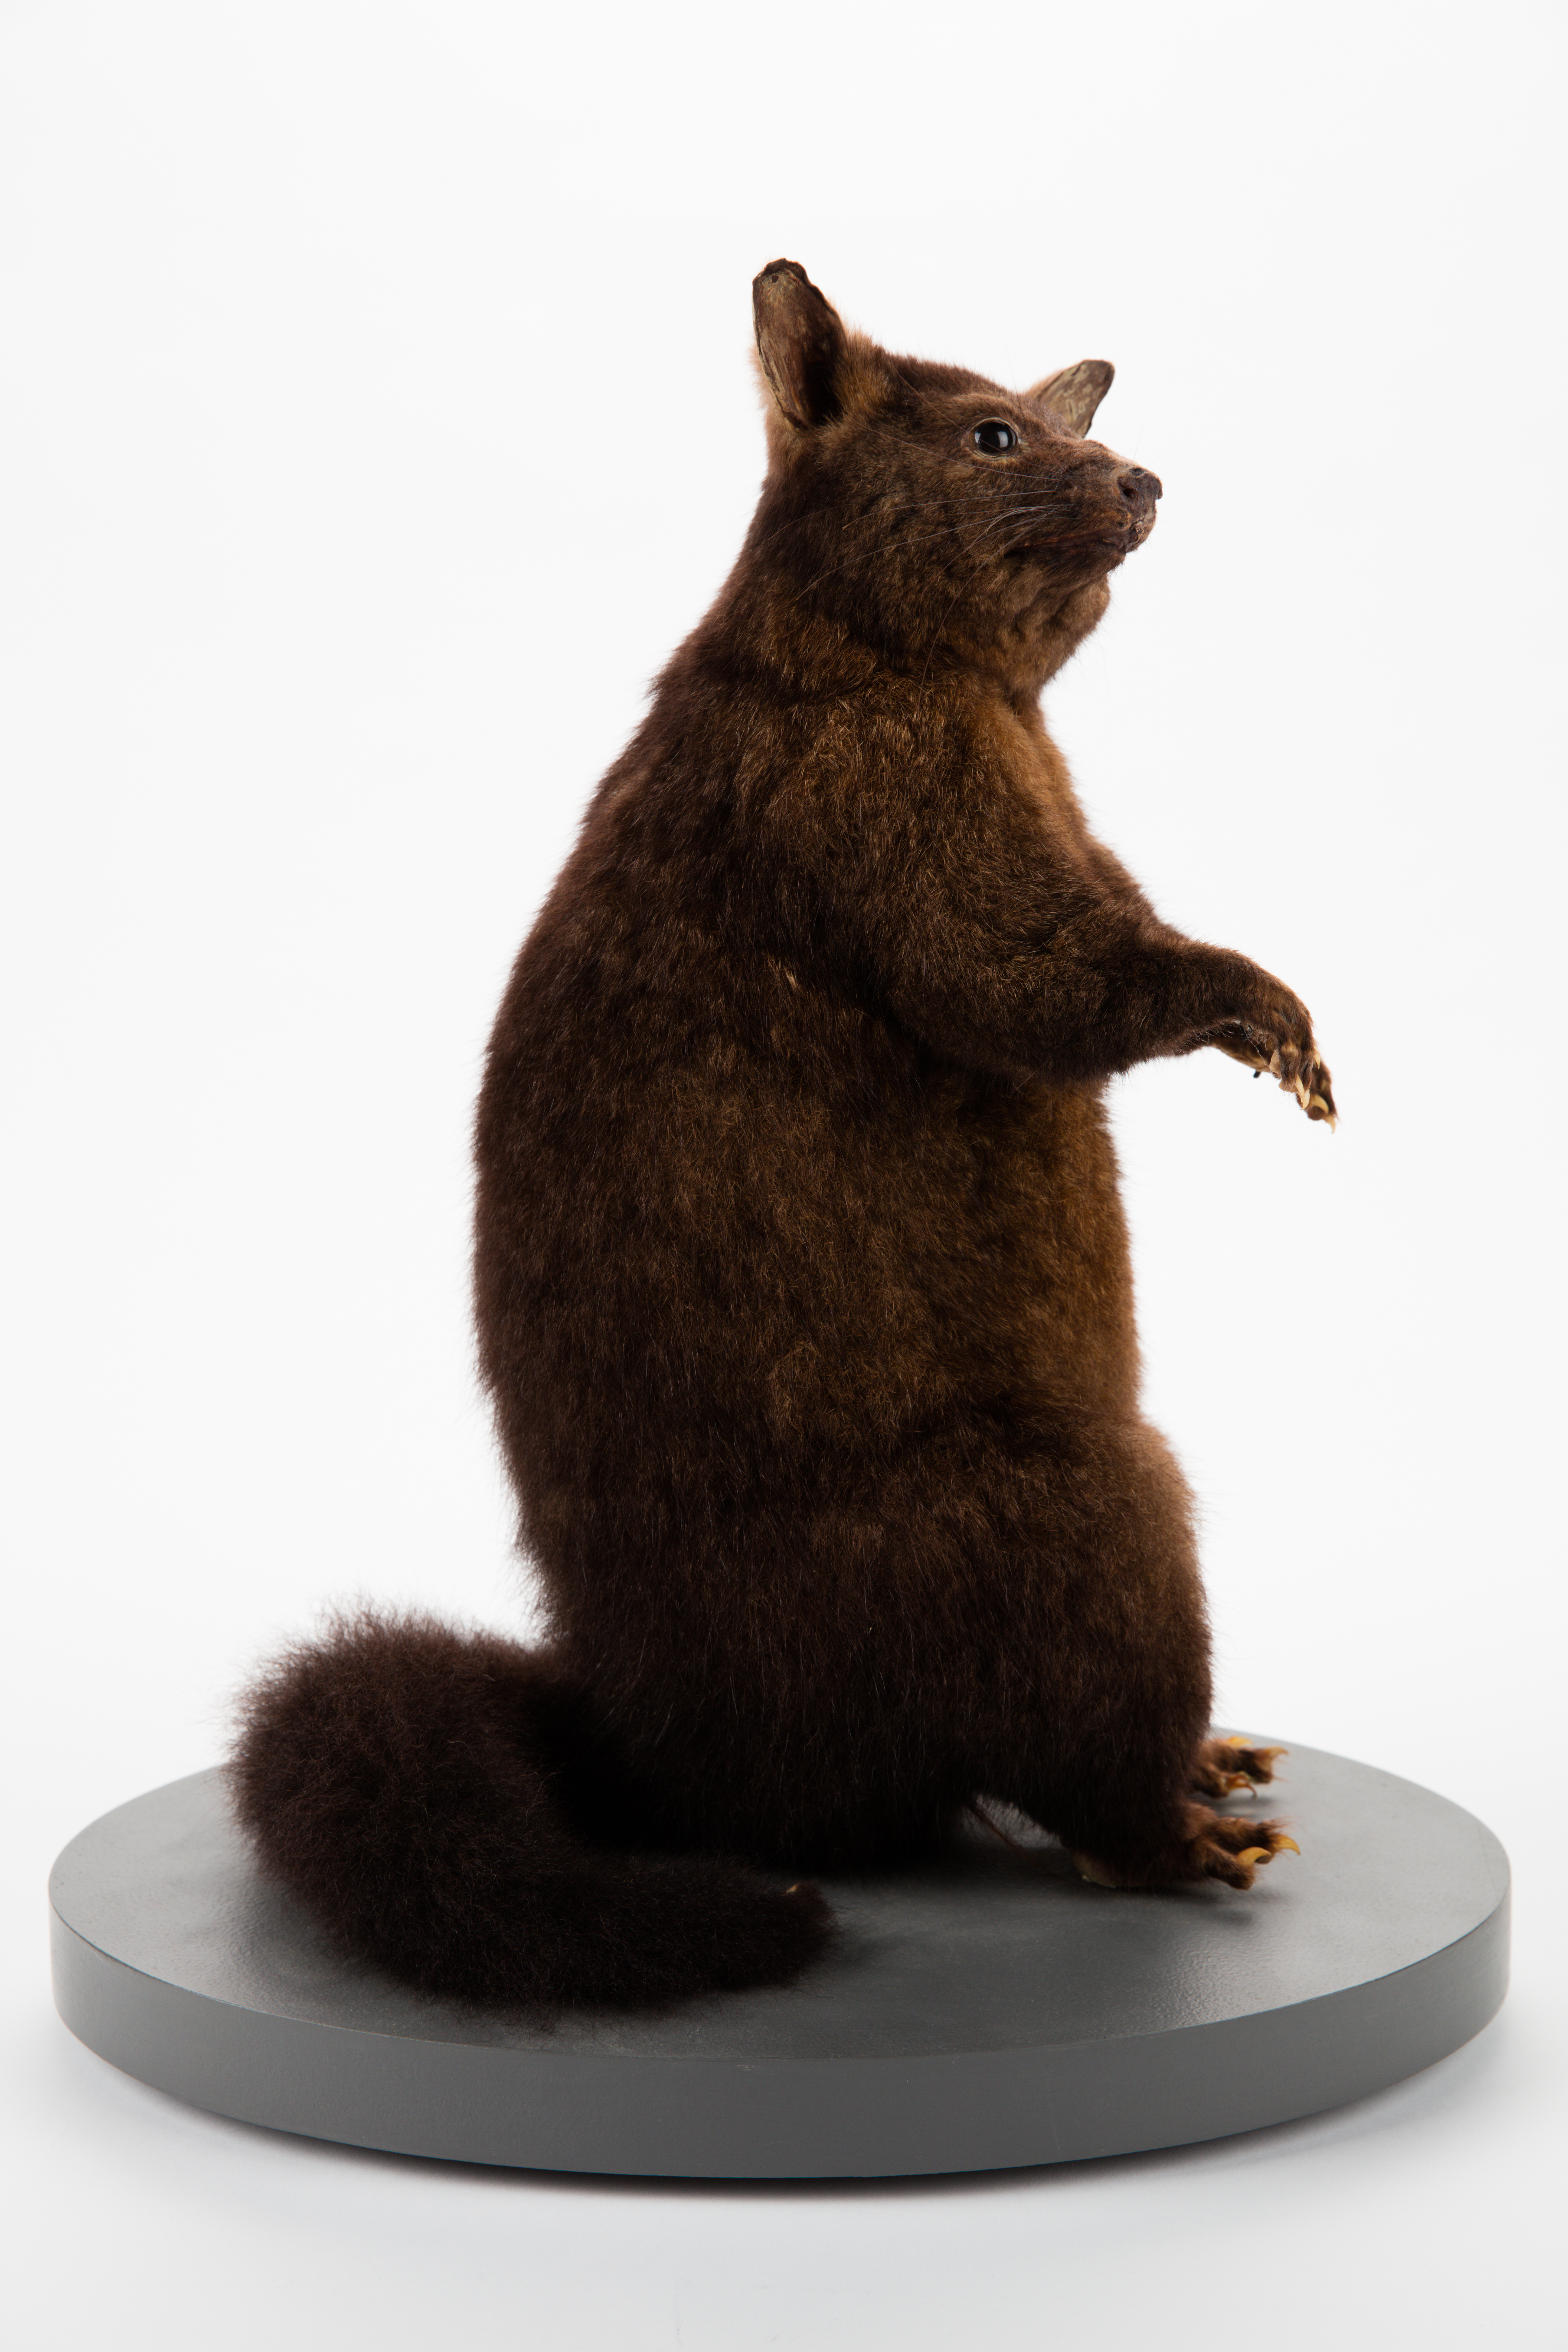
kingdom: Animalia
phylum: Chordata
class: Mammalia
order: Diprotodontia
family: Phalangeridae
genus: Trichosurus
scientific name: Trichosurus vulpecula
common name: Common brushtail
